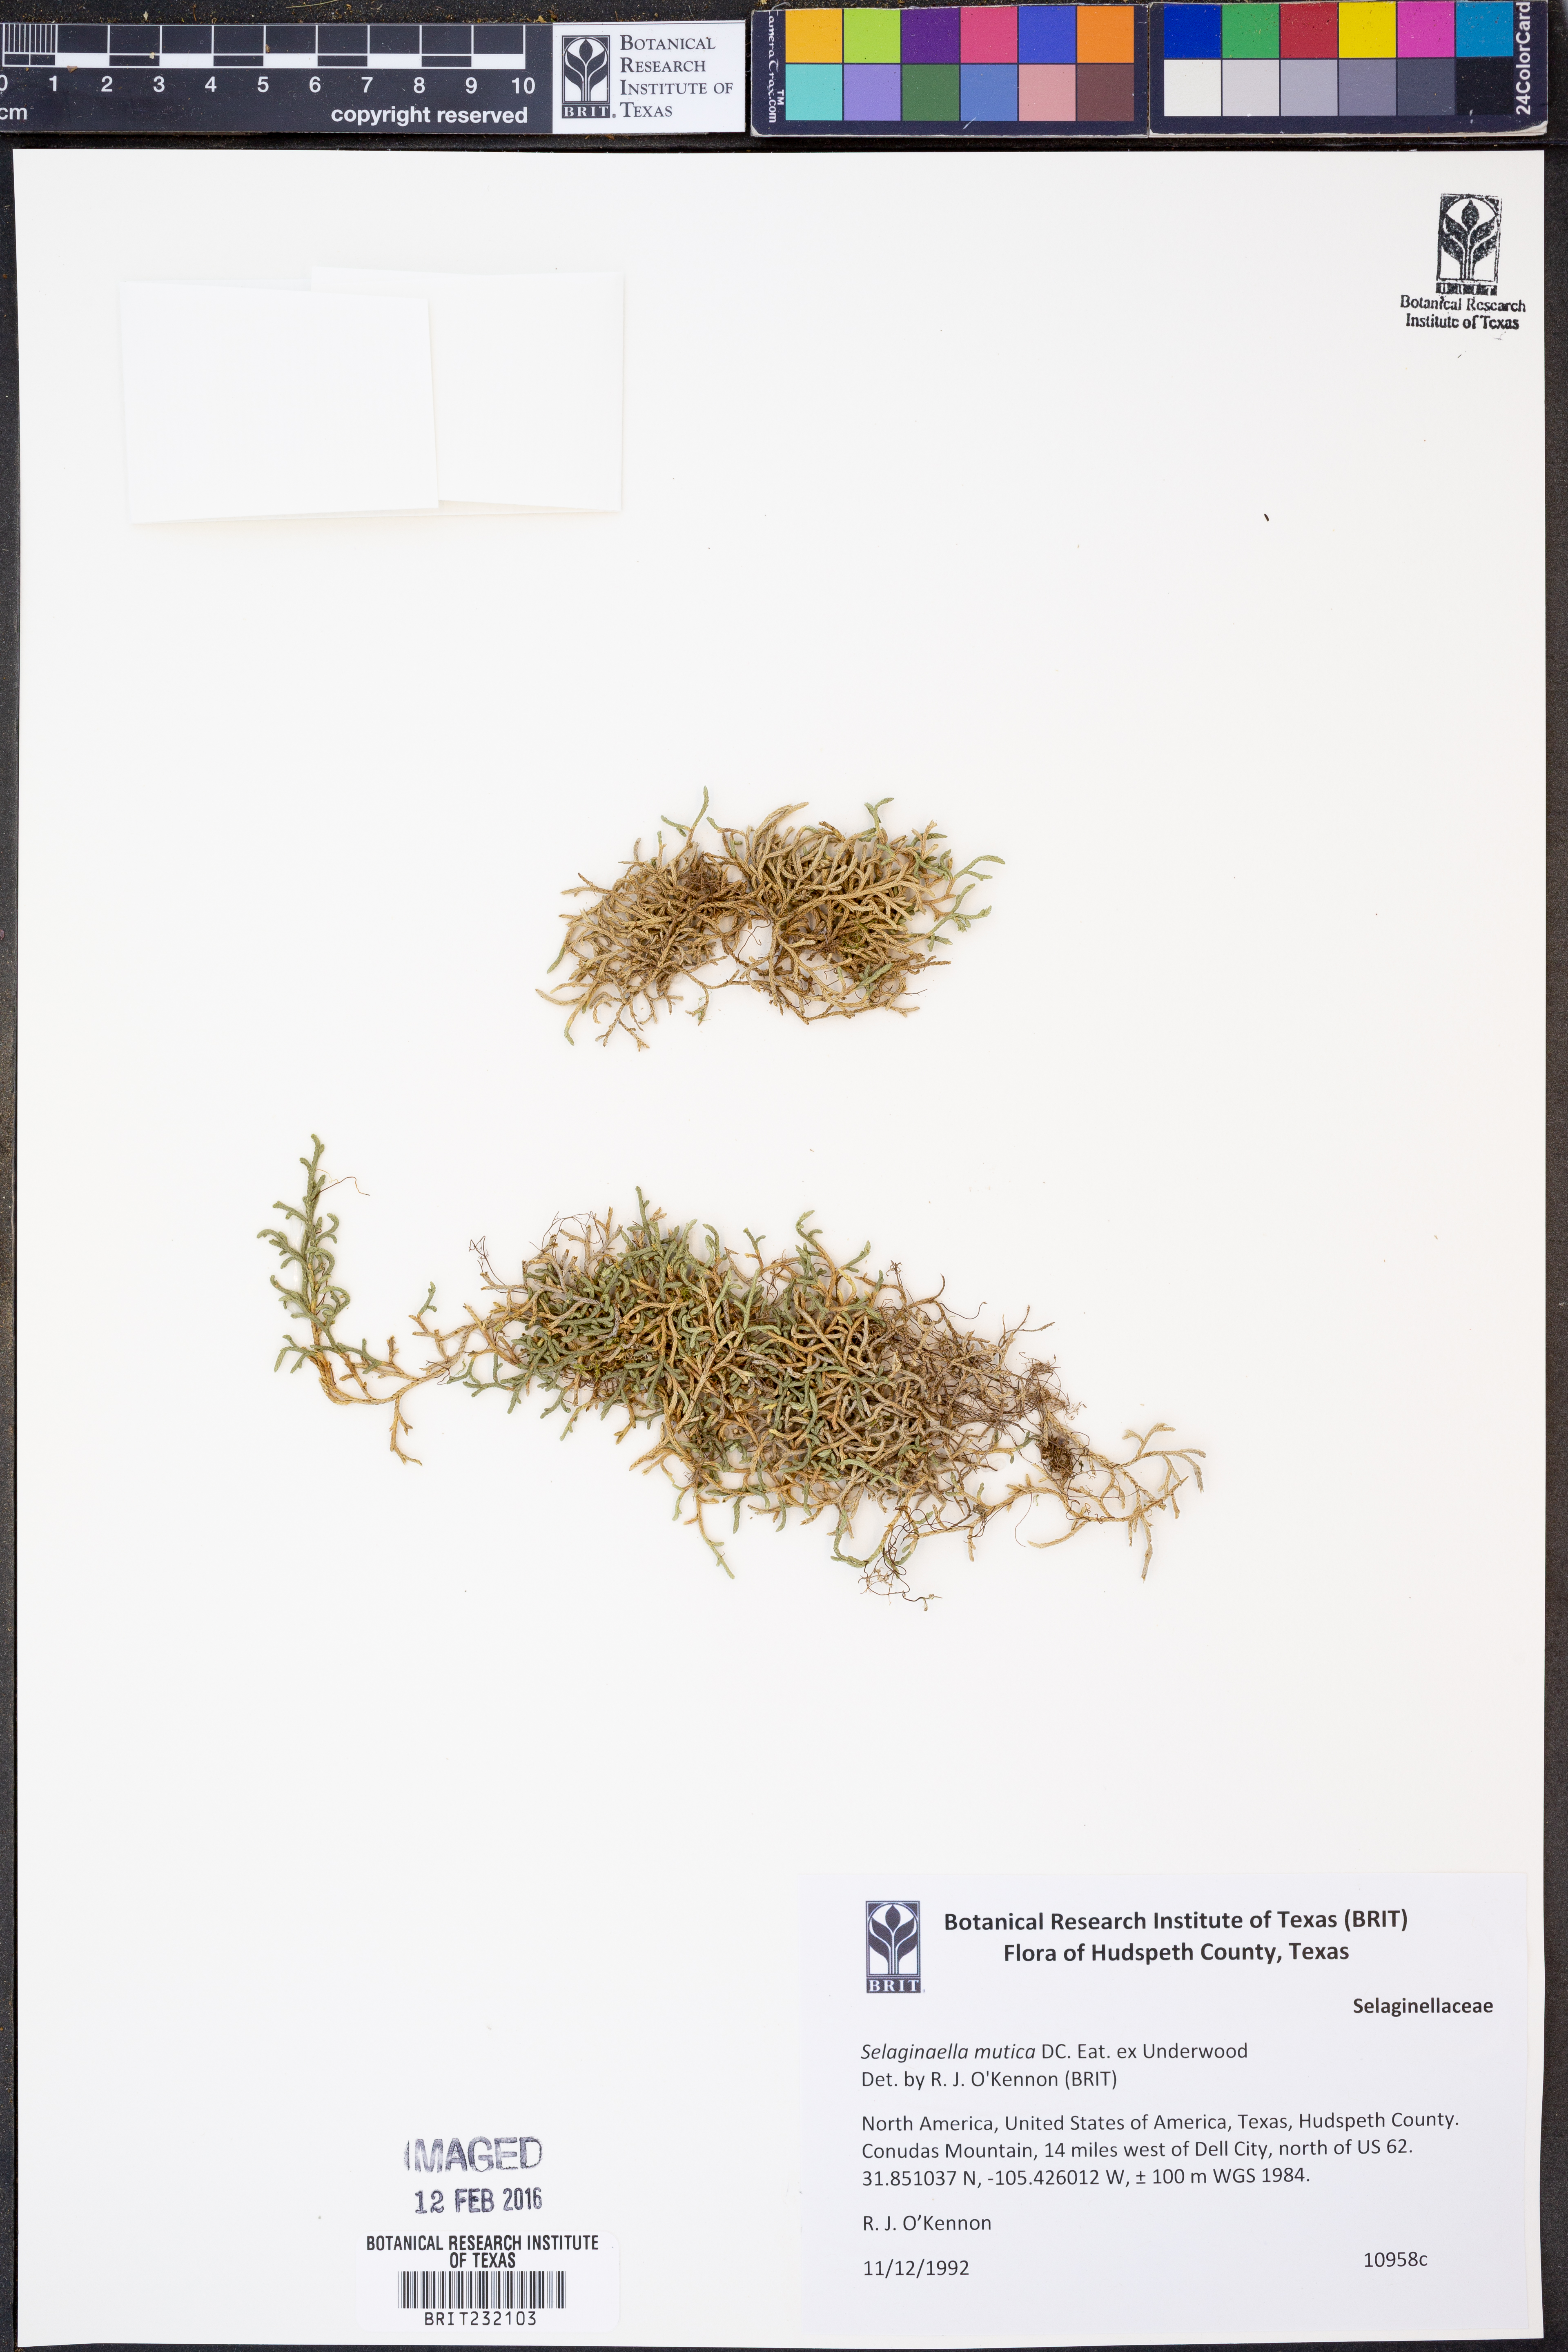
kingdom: Plantae
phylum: Tracheophyta
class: Lycopodiopsida
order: Selaginellales
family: Selaginellaceae
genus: Selaginella
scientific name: Selaginella mutica
